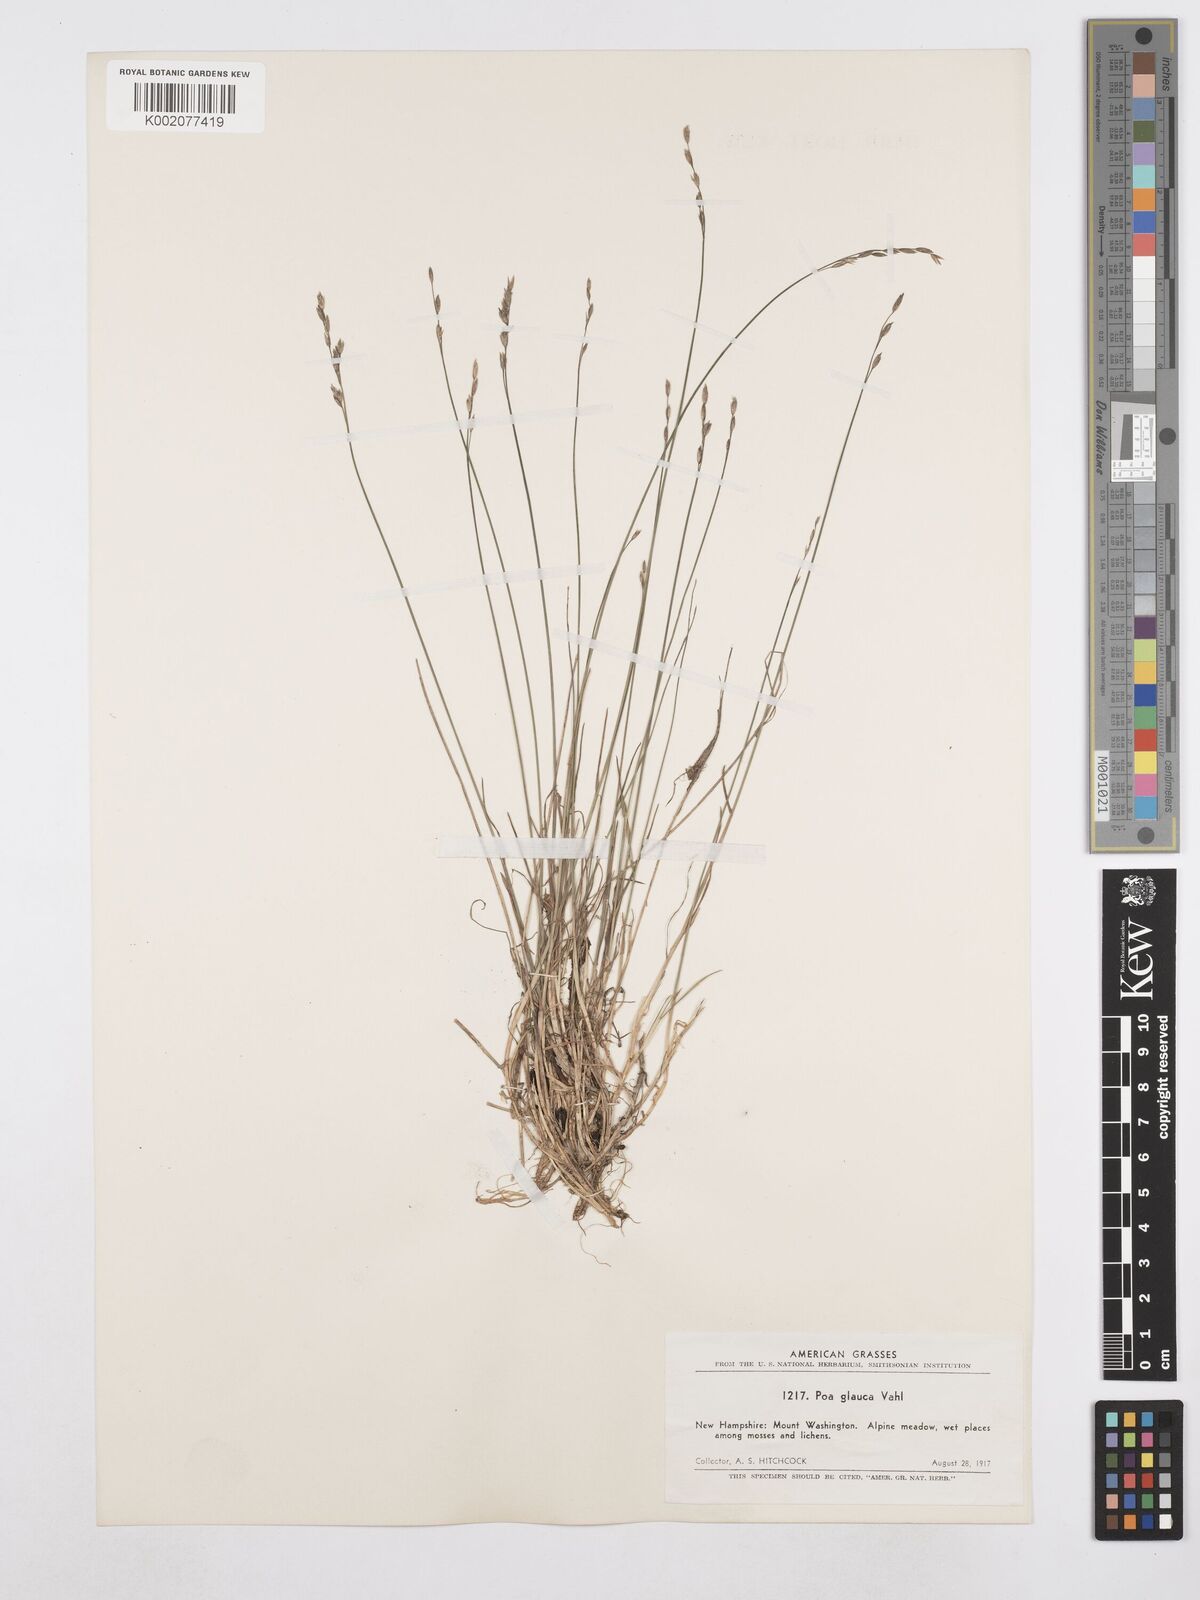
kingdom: Plantae
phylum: Tracheophyta
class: Liliopsida
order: Poales
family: Poaceae
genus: Poa
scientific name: Poa glauca
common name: Glaucous bluegrass
